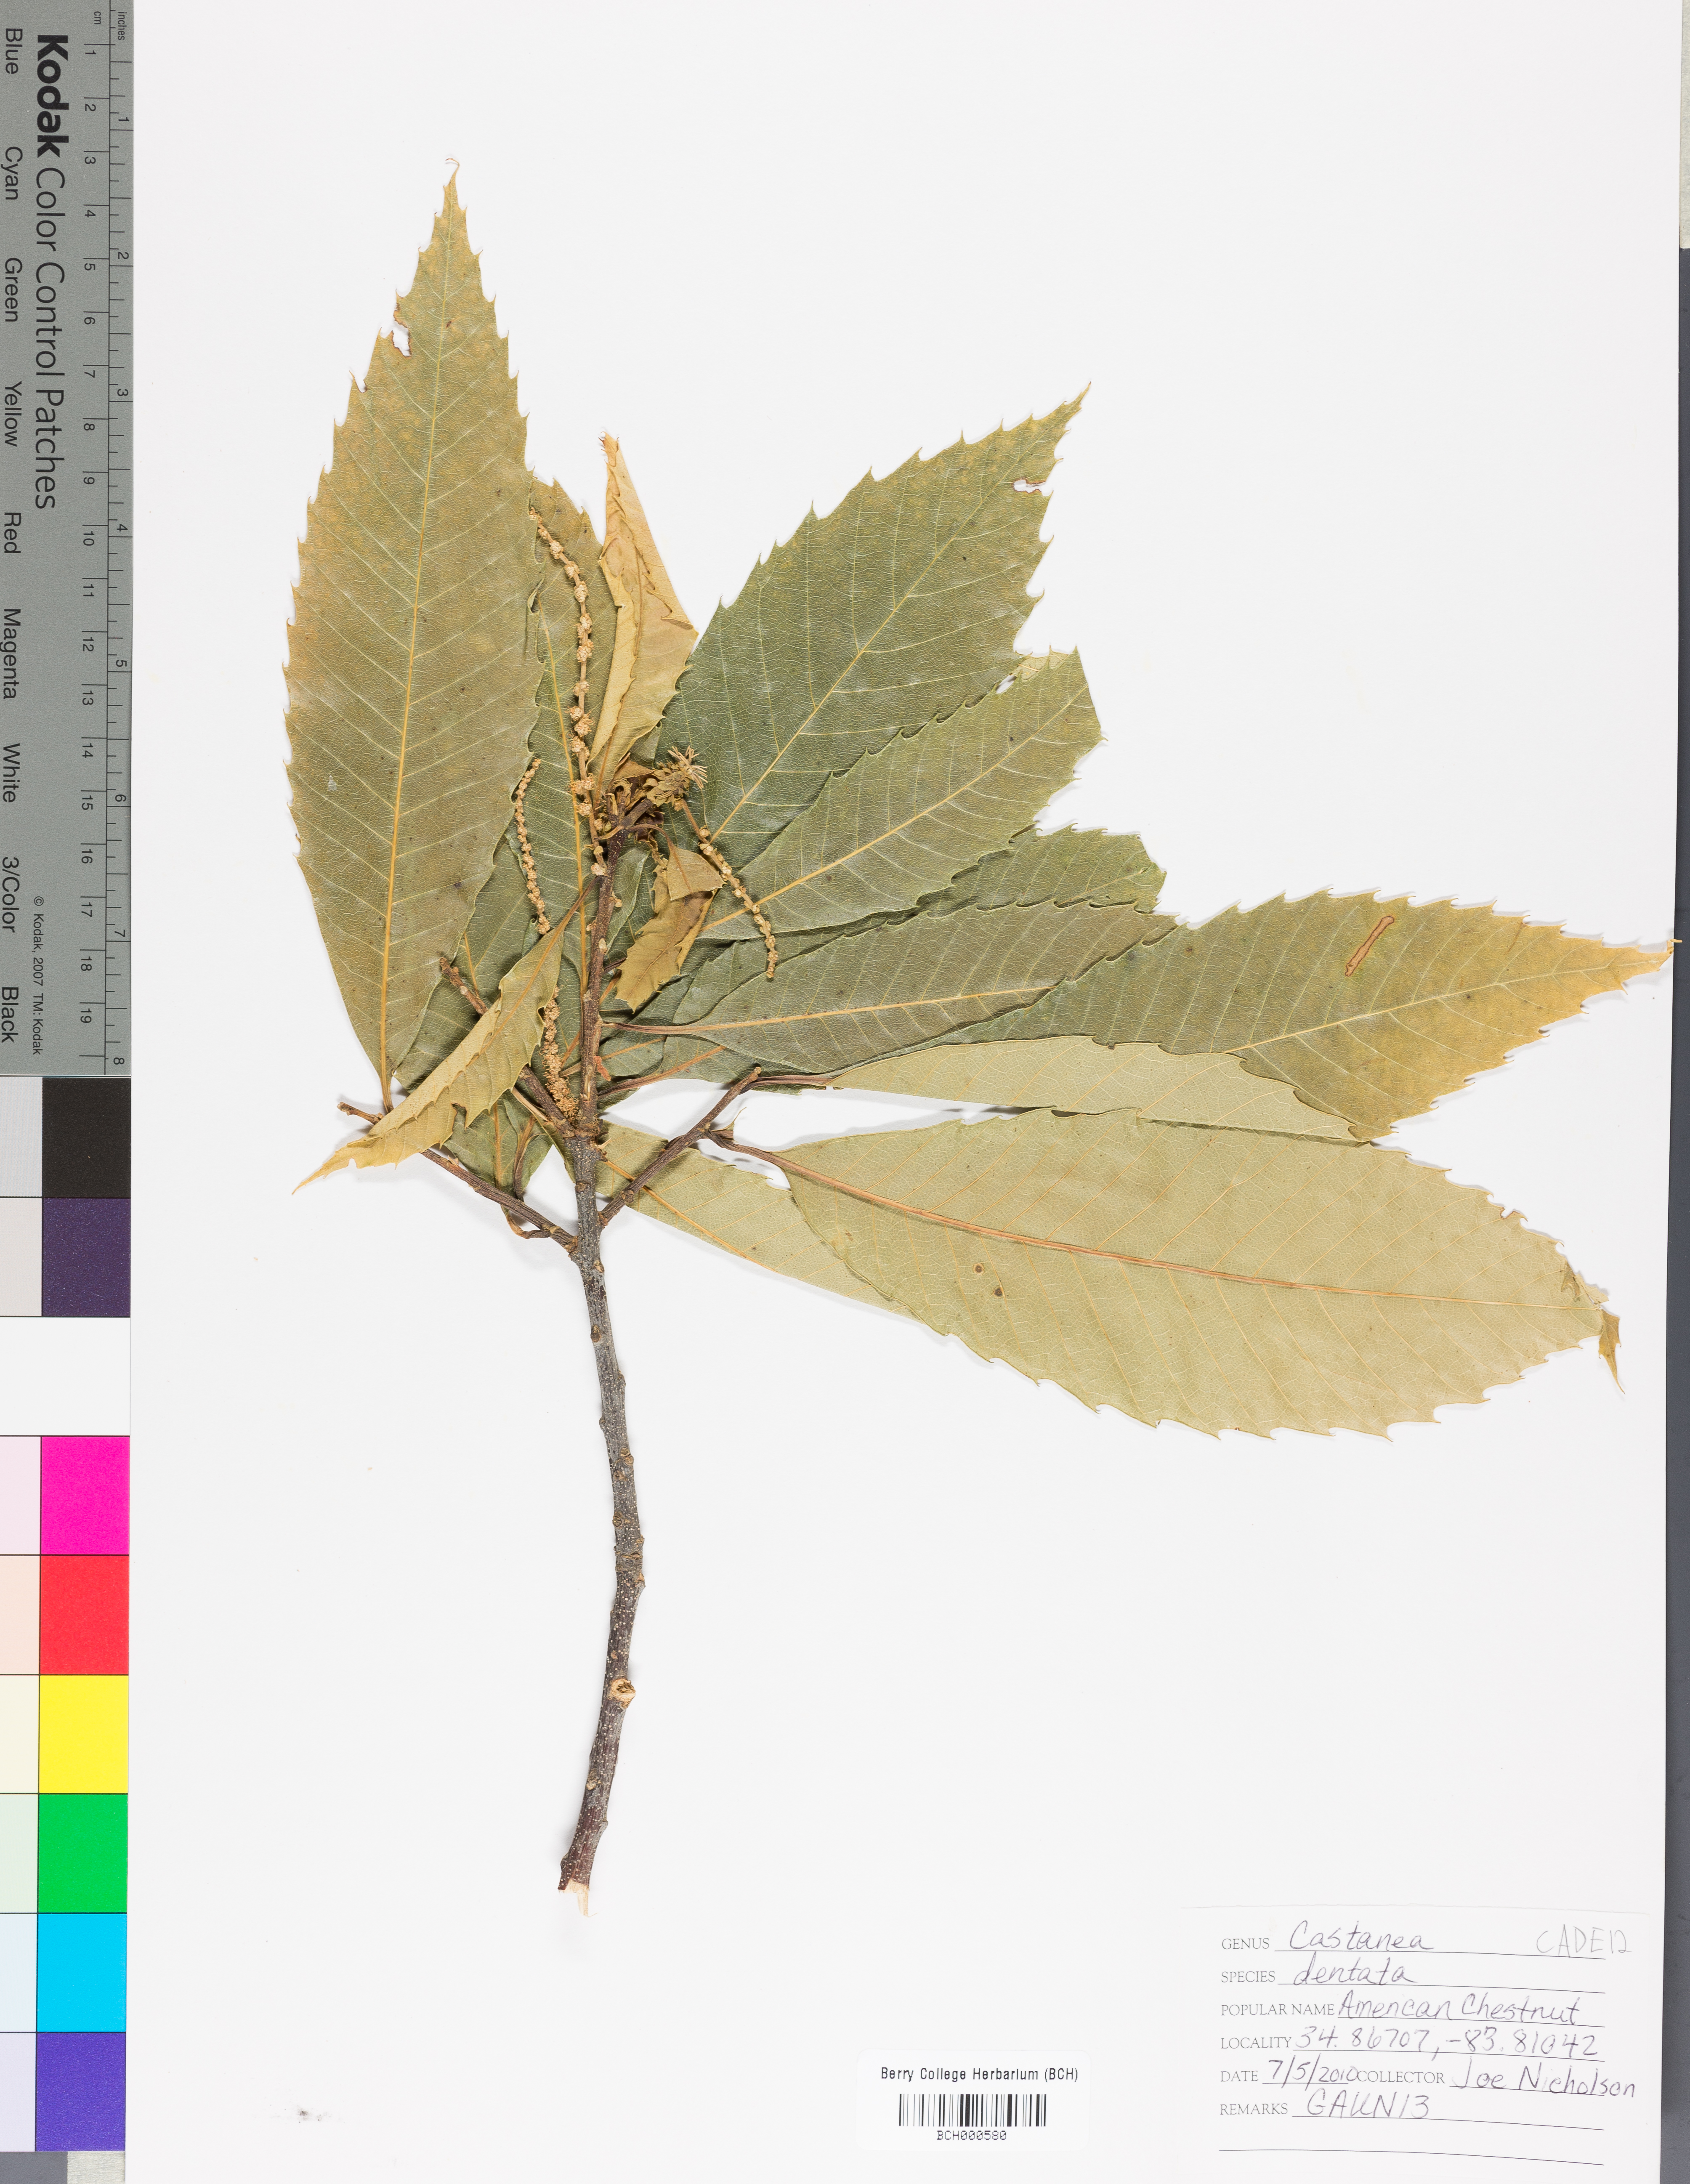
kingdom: Plantae
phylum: Tracheophyta
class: Magnoliopsida
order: Fagales
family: Fagaceae
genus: Castanea
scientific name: Castanea dentata
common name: American chestnut
